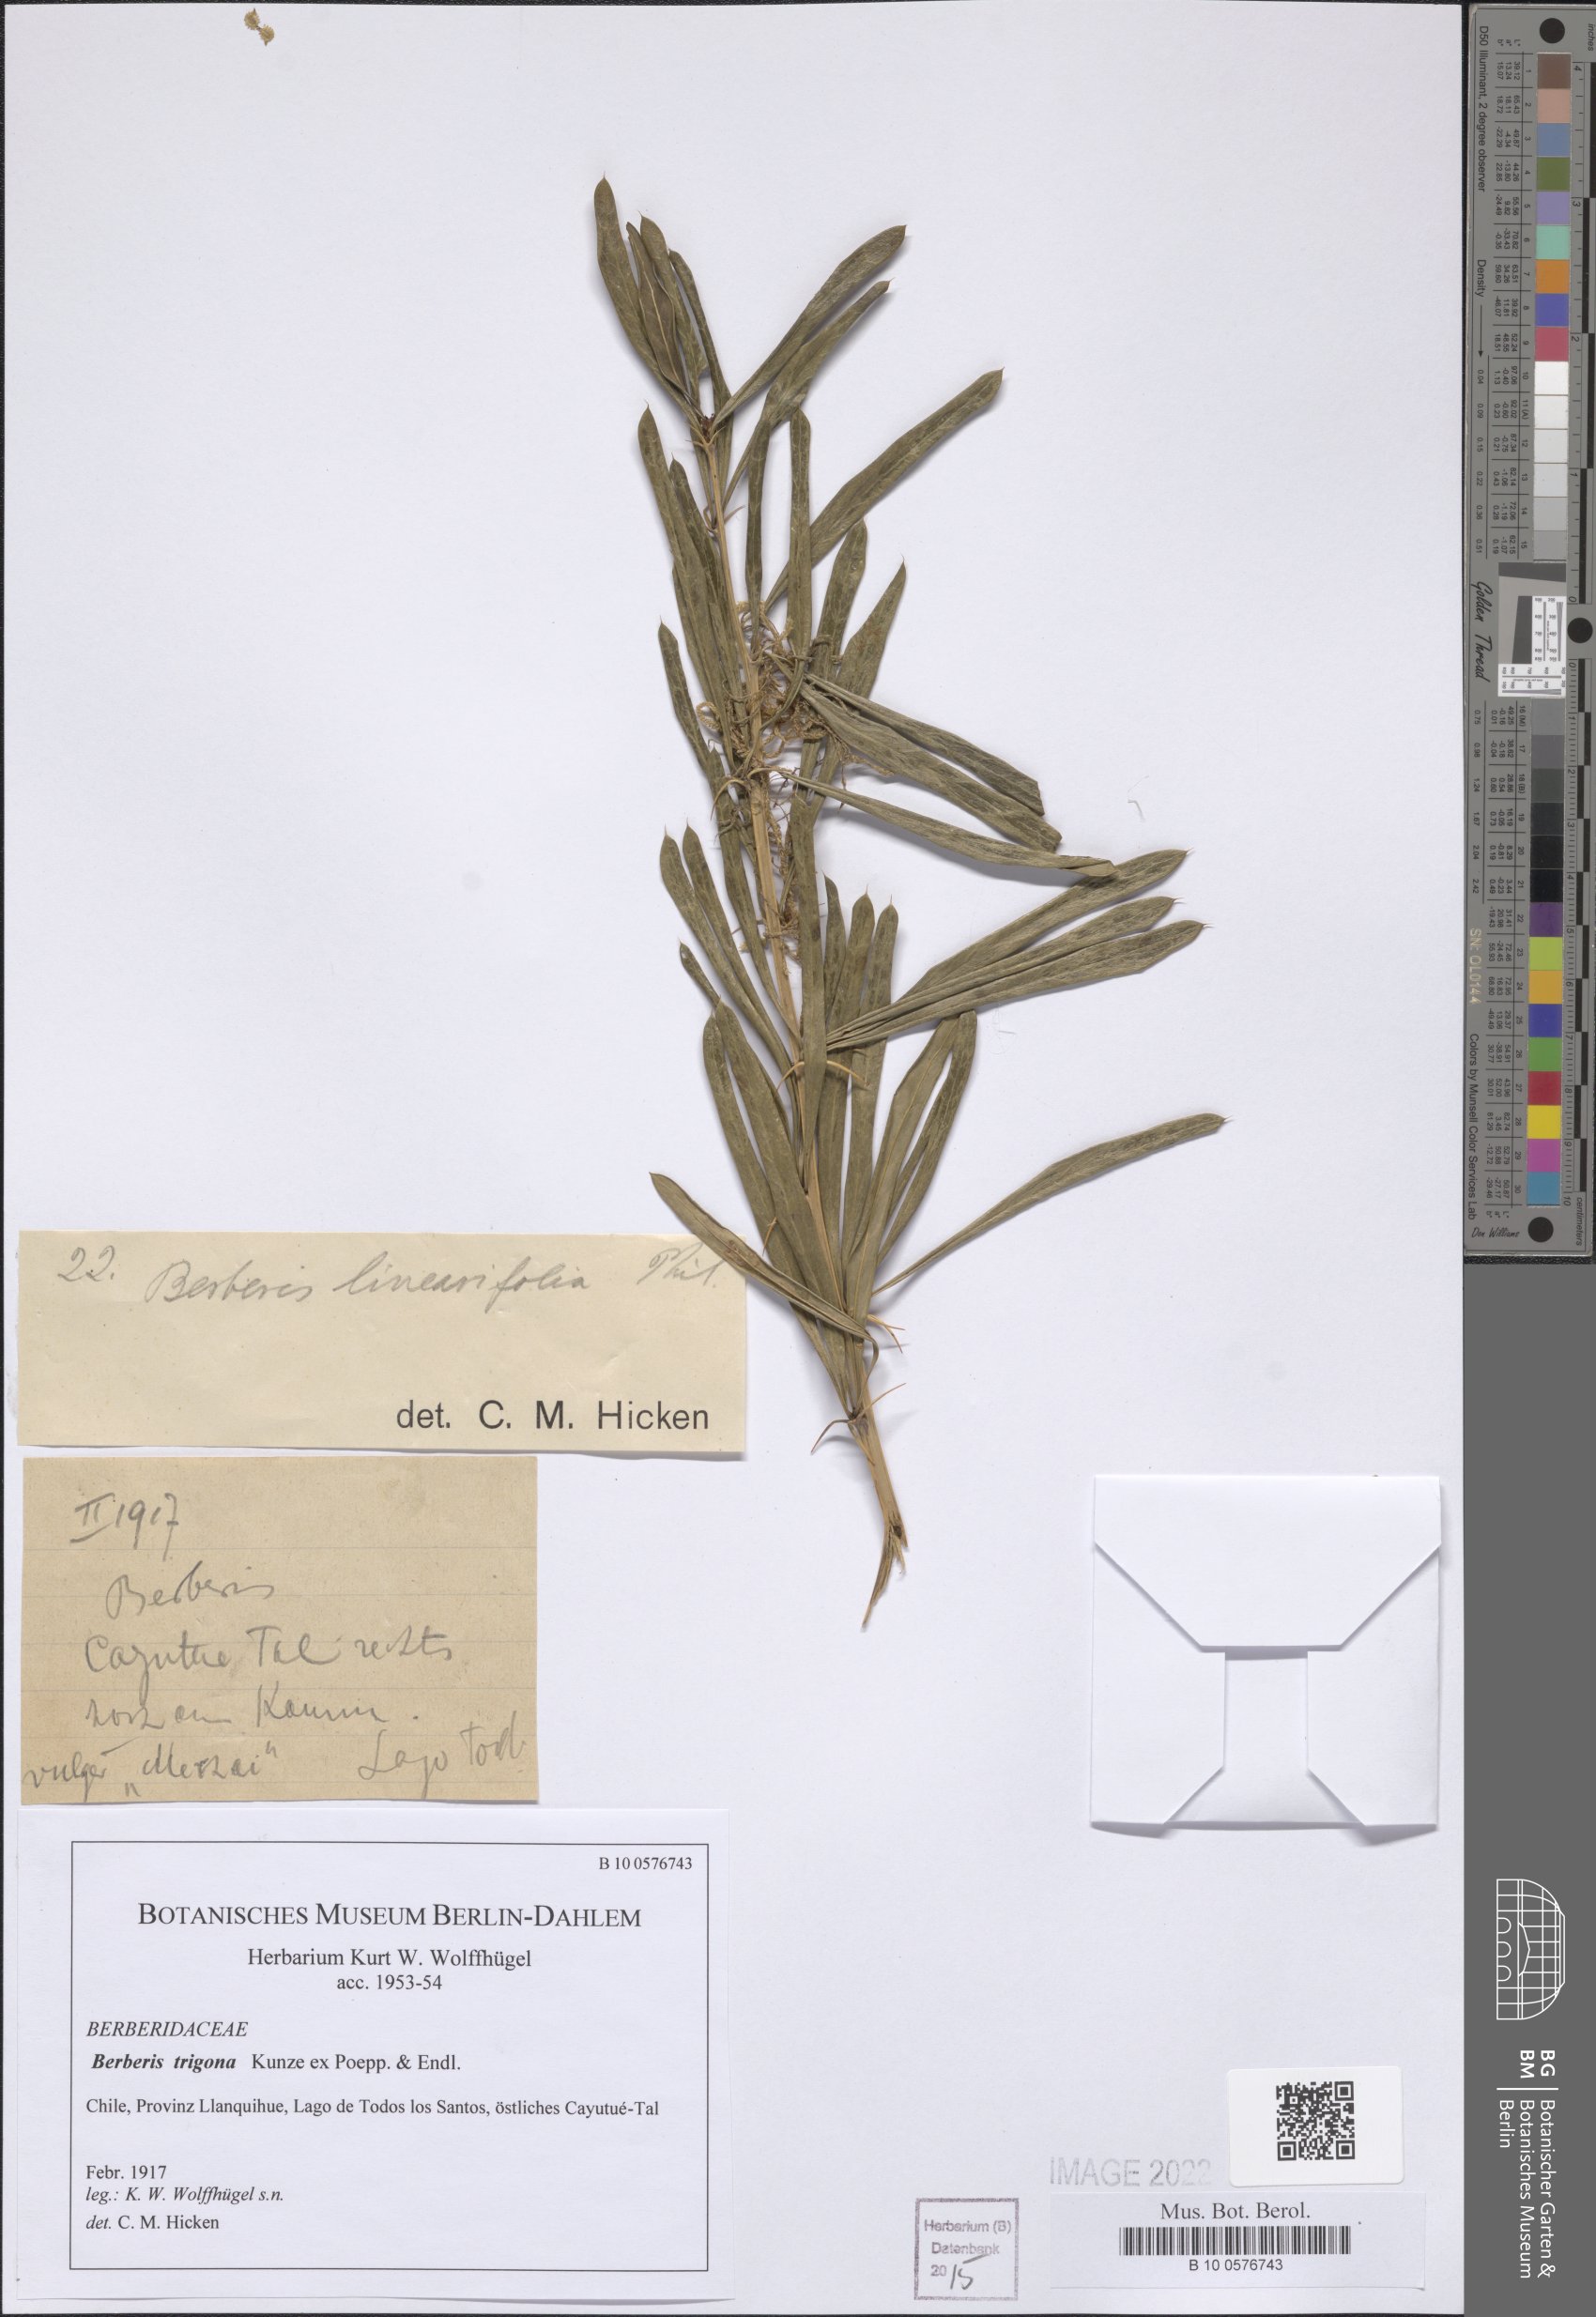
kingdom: Plantae
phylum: Tracheophyta
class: Magnoliopsida
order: Ranunculales
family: Berberidaceae
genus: Berberis
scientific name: Berberis trigona
